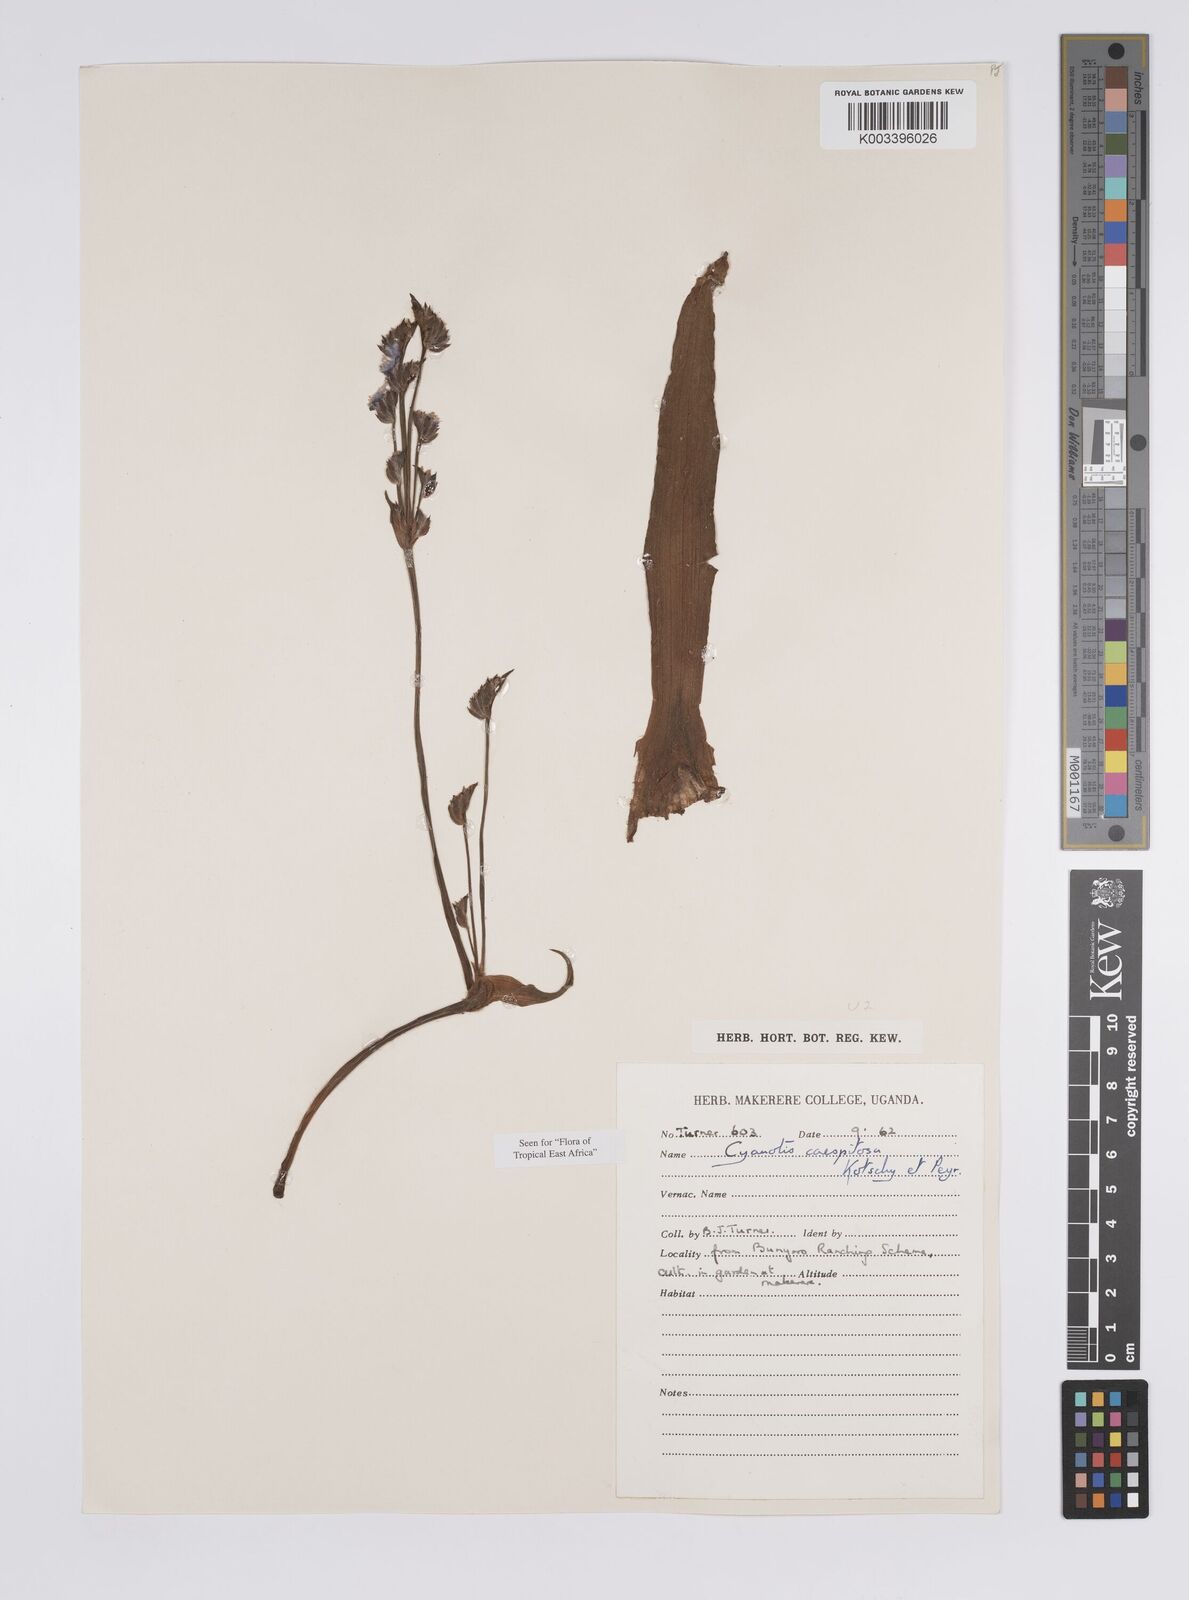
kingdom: Plantae
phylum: Tracheophyta
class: Liliopsida
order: Commelinales
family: Commelinaceae
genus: Cyanotis
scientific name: Cyanotis caespitosa
